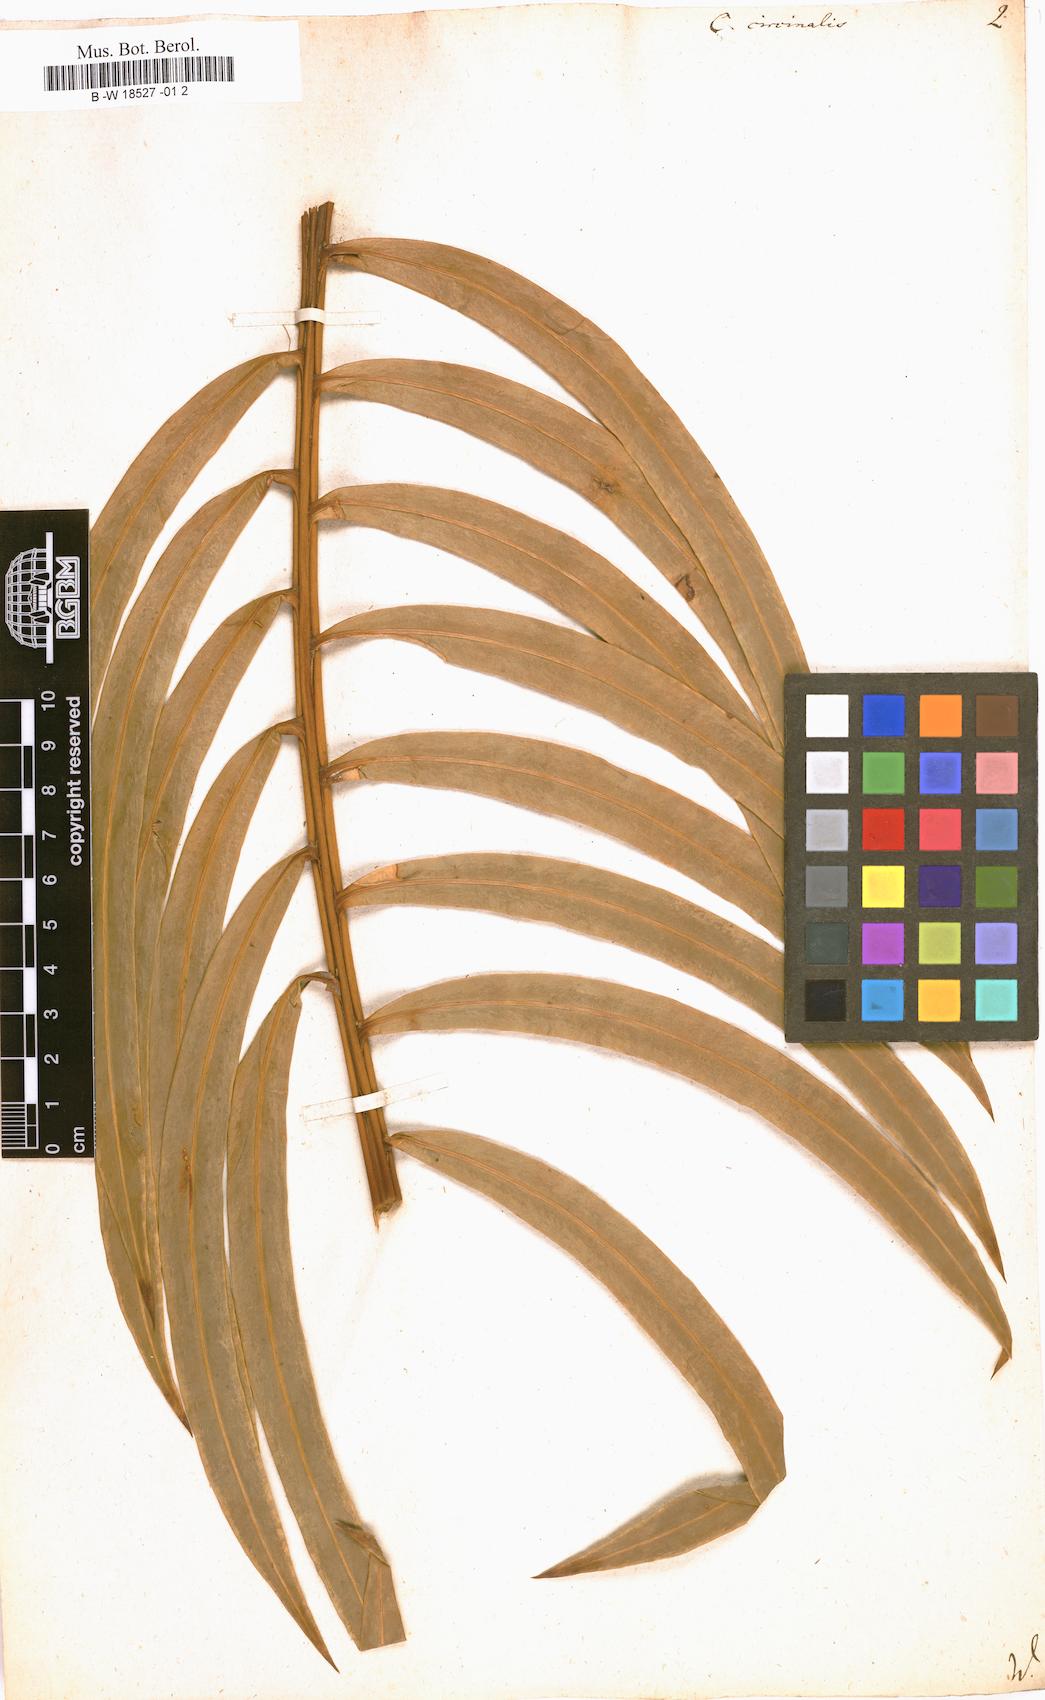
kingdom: Plantae
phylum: Tracheophyta
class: Cycadopsida
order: Cycadales
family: Cycadaceae
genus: Cycas
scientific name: Cycas circinalis
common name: Queen sago
